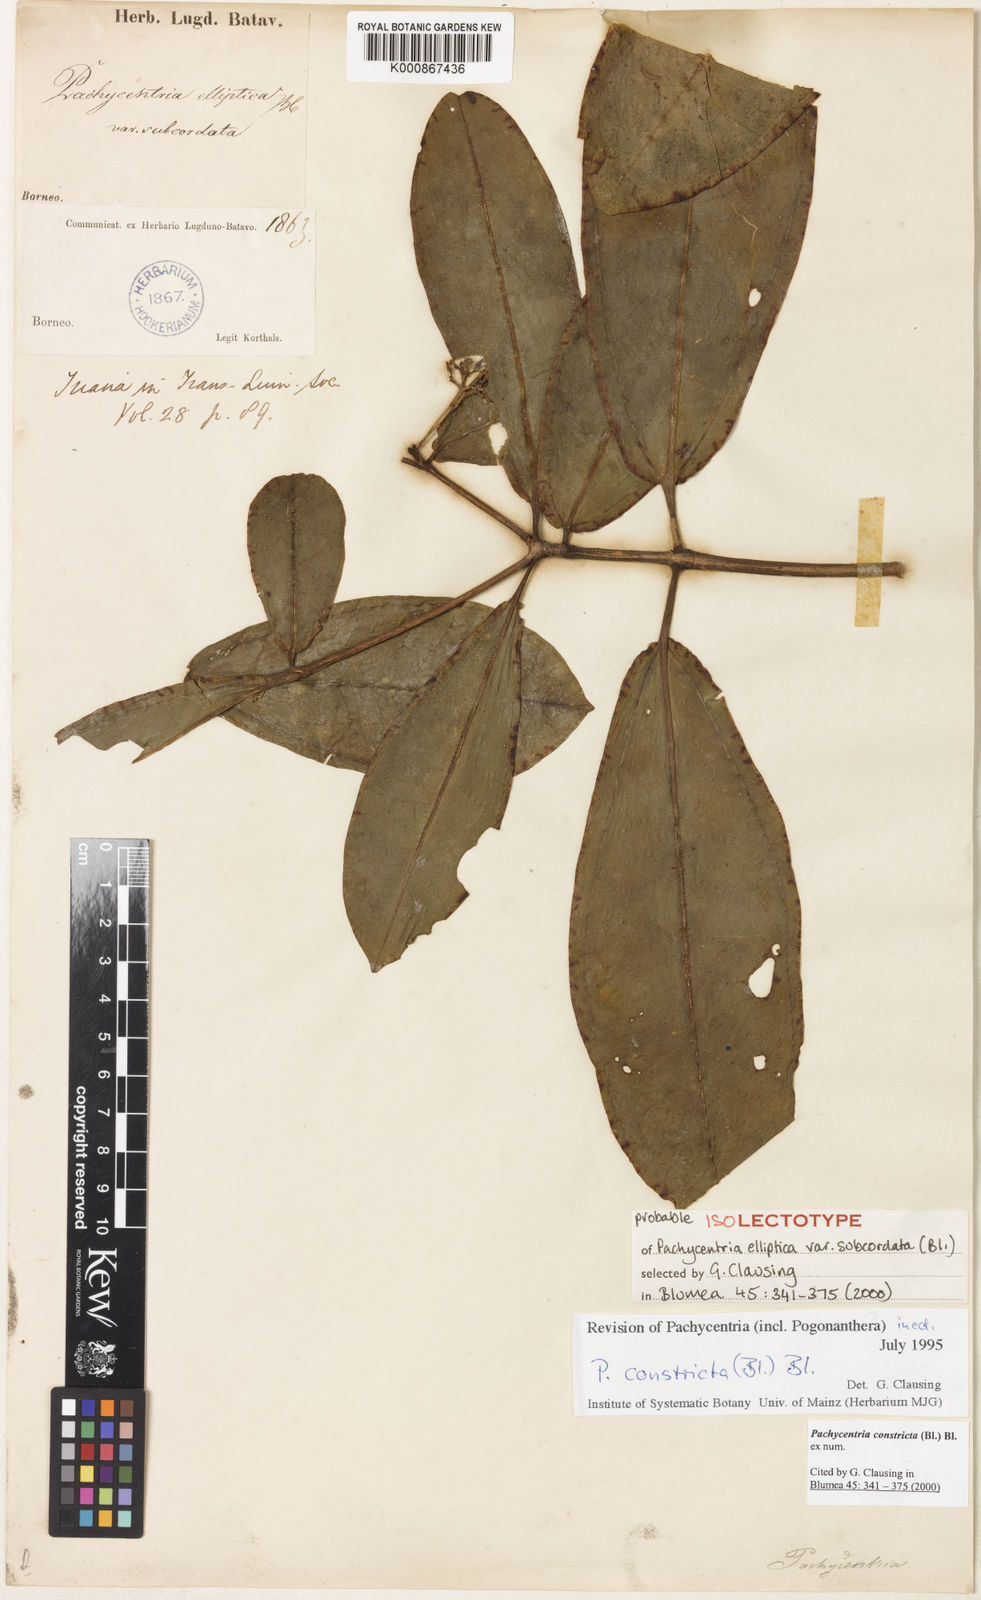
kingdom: Plantae
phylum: Tracheophyta
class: Magnoliopsida
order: Myrtales
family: Melastomataceae
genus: Pachycentria
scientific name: Pachycentria constricta
